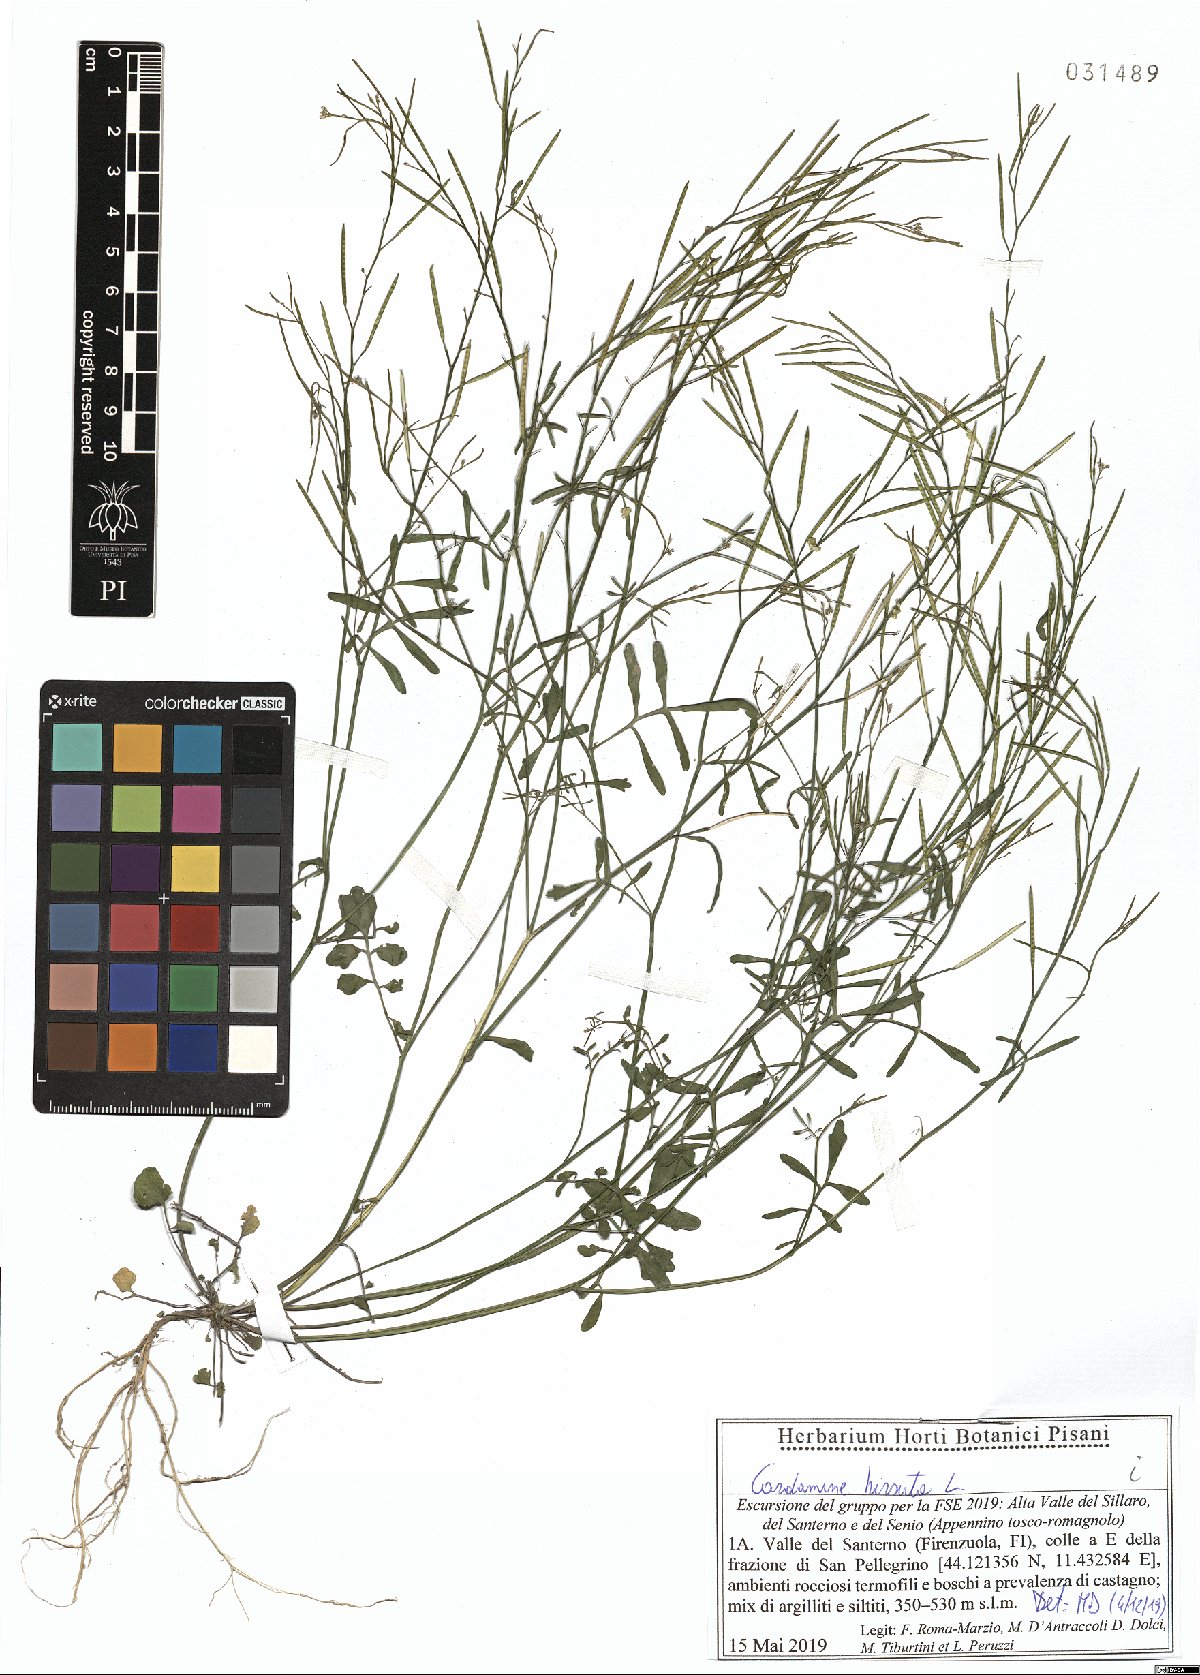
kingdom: Plantae
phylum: Tracheophyta
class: Magnoliopsida
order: Brassicales
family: Brassicaceae
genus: Cardamine
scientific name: Cardamine hirsuta
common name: Hairy bittercress
